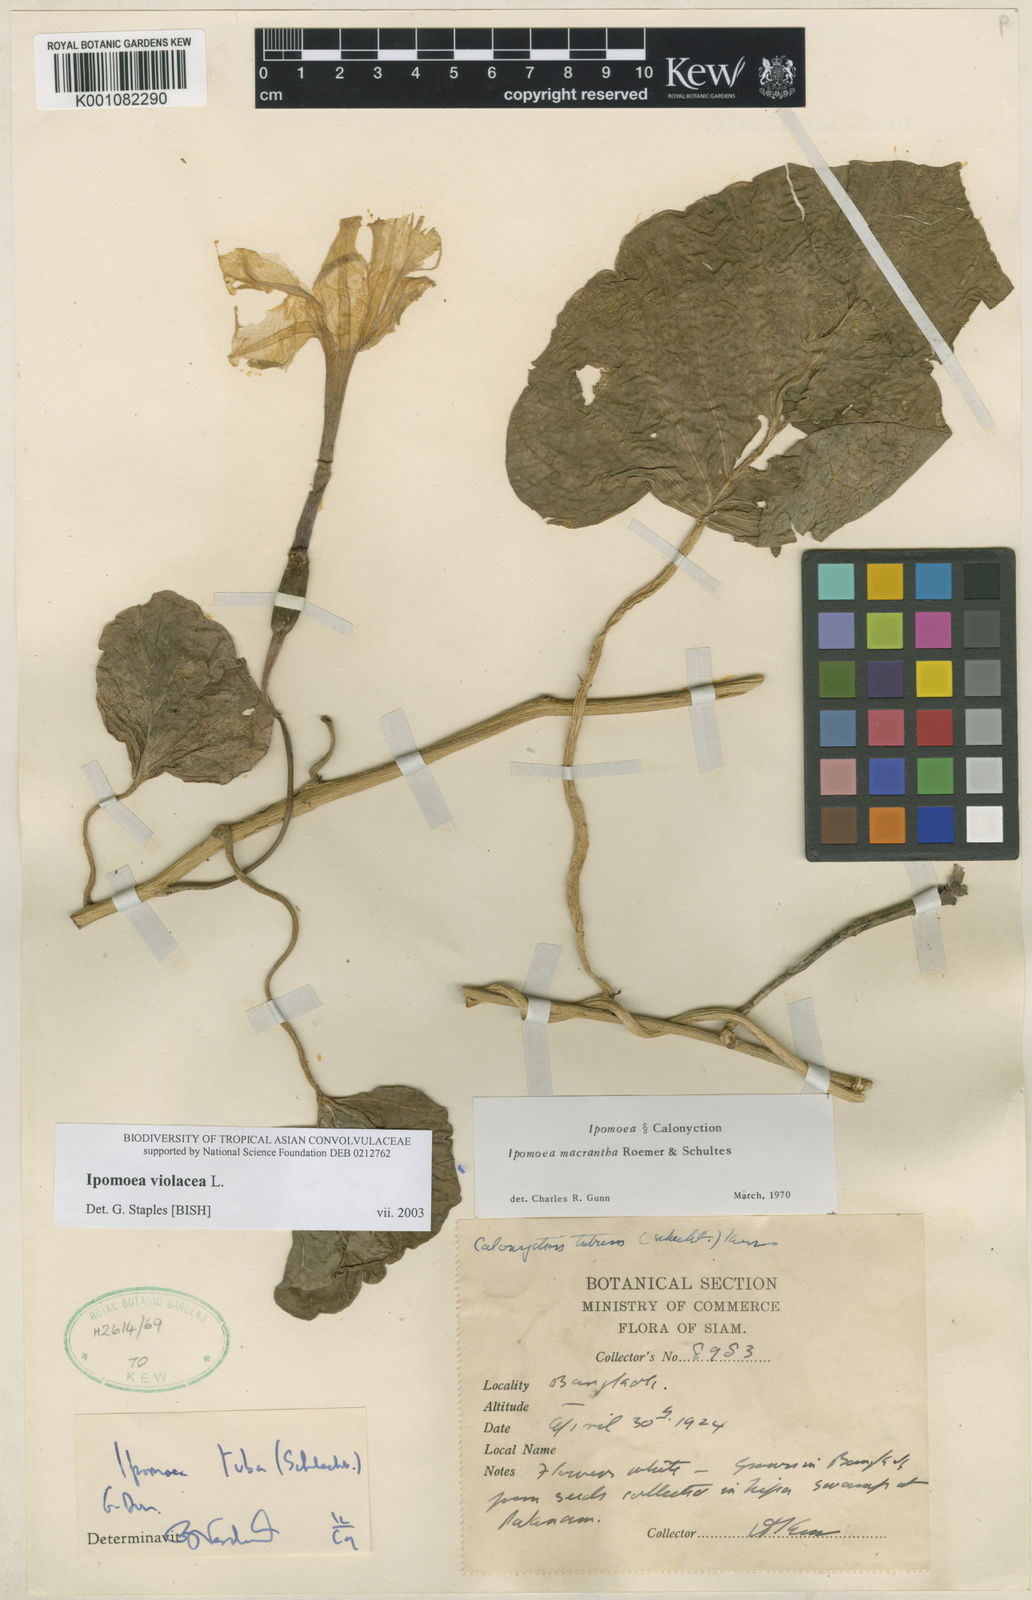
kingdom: Plantae
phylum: Tracheophyta
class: Magnoliopsida
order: Solanales
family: Convolvulaceae
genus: Ipomoea
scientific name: Ipomoea violacea
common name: Beach moonflower
